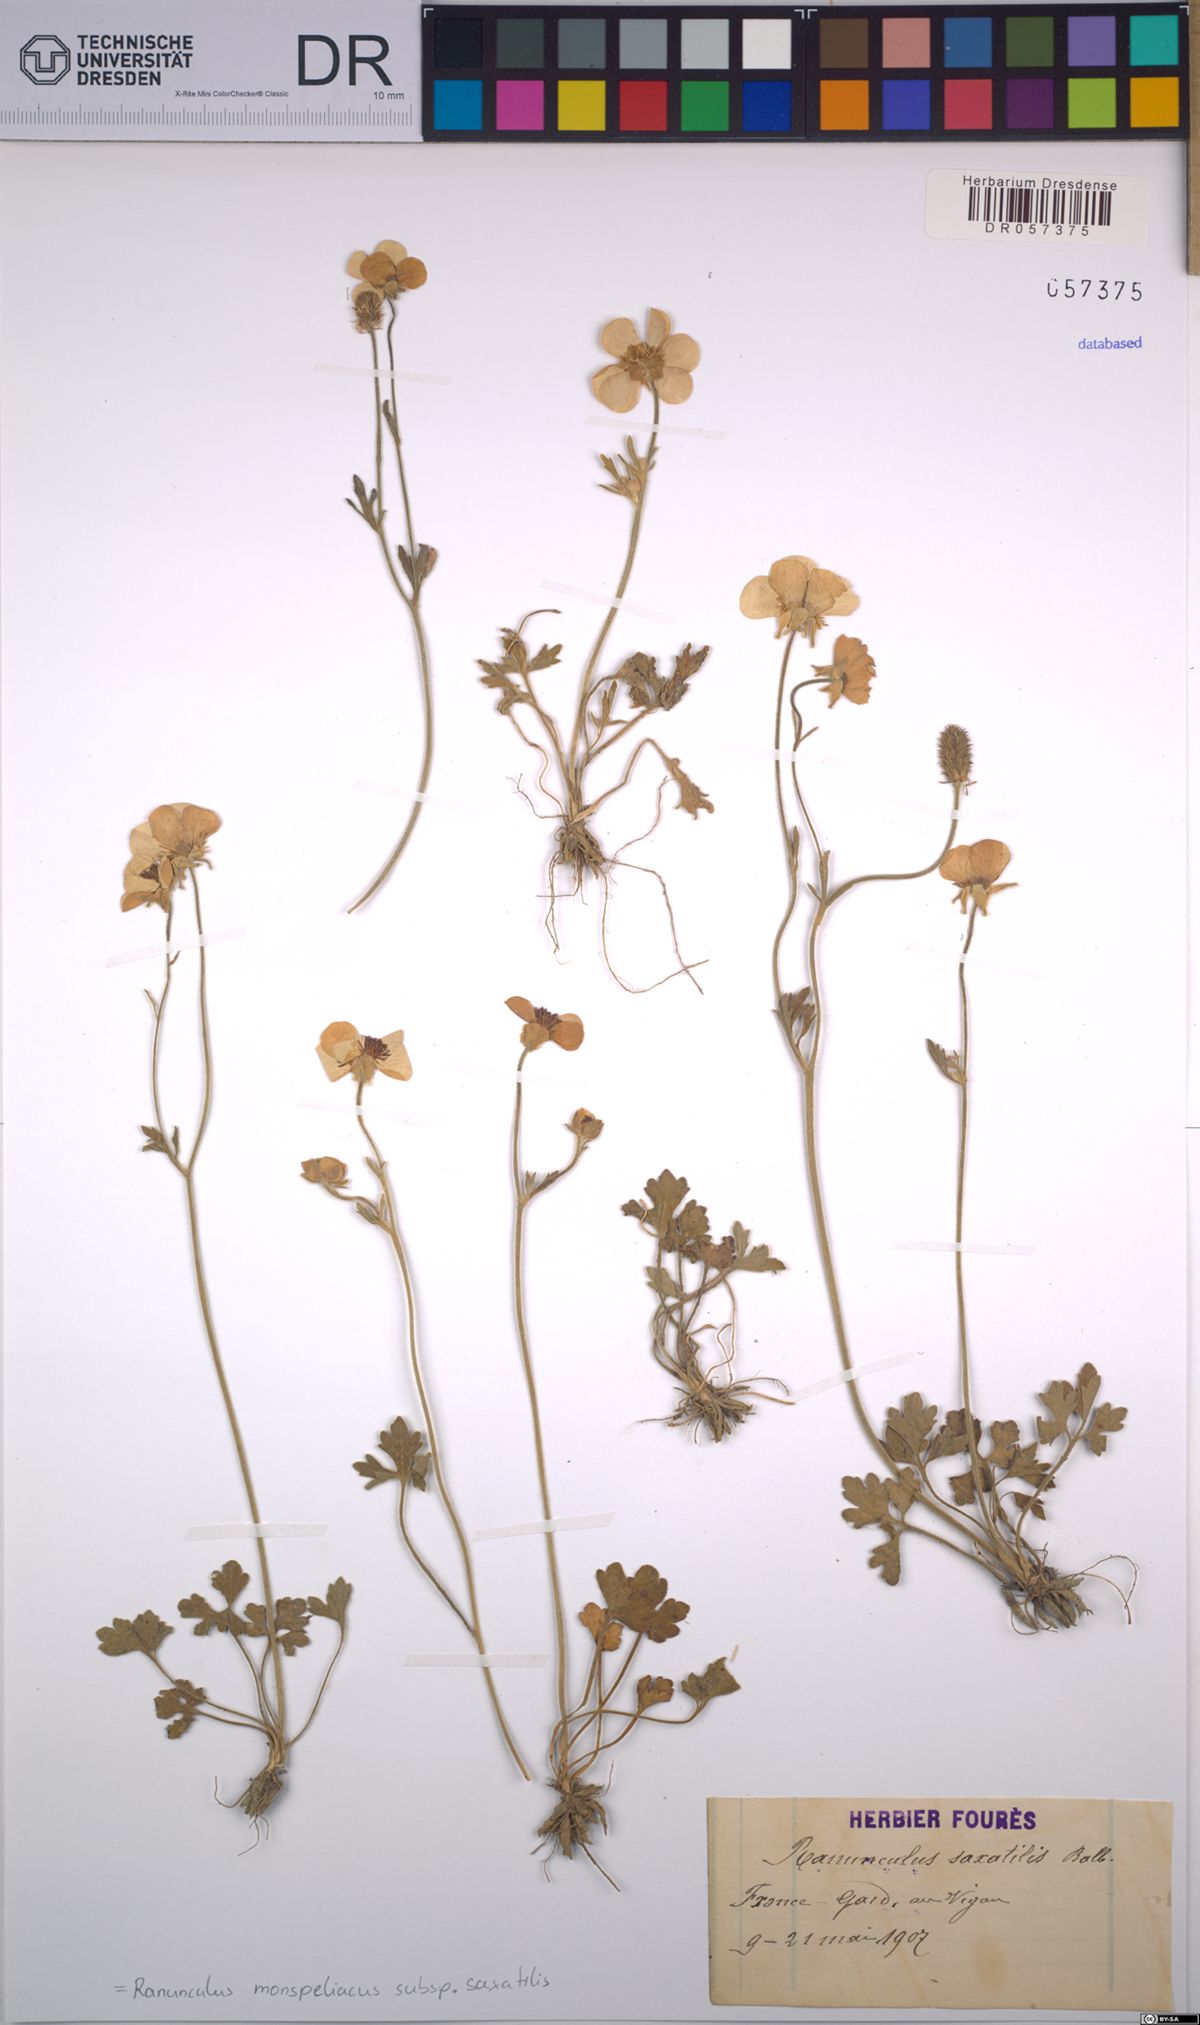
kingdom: Plantae
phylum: Tracheophyta
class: Magnoliopsida
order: Ranunculales
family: Ranunculaceae
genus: Ranunculus
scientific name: Ranunculus monspeliacus
